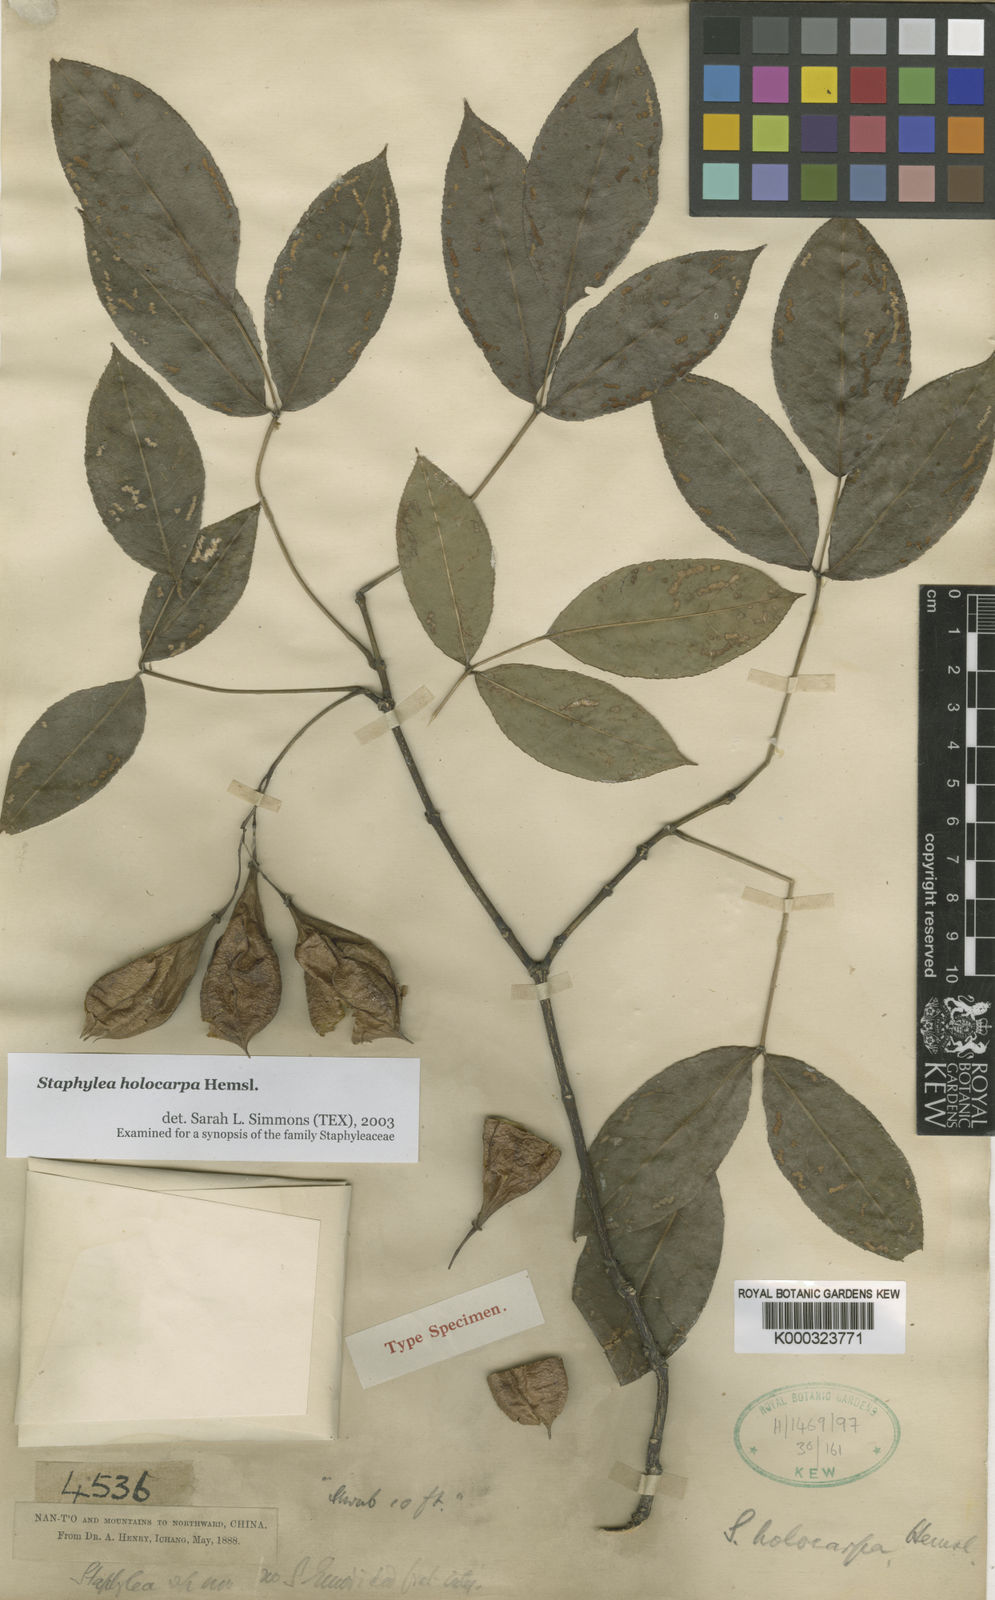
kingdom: Plantae
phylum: Tracheophyta
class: Magnoliopsida
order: Crossosomatales
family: Staphyleaceae
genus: Staphylea
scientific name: Staphylea holocarpa
